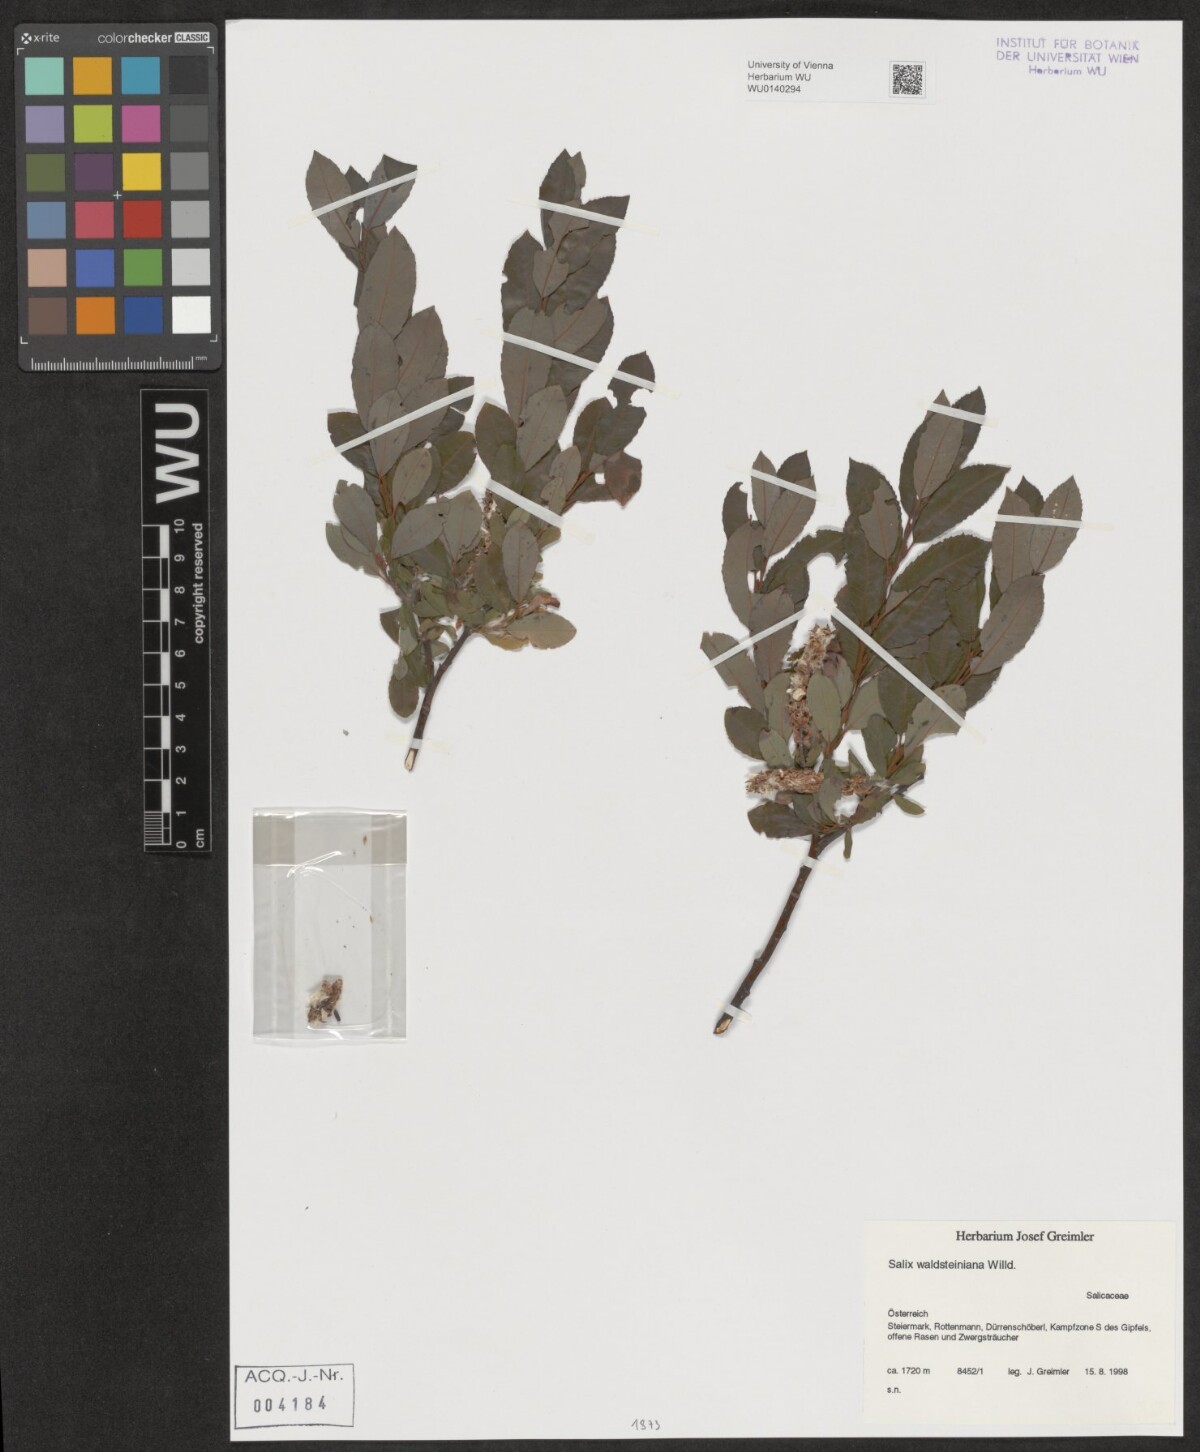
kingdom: Plantae
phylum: Tracheophyta
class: Magnoliopsida
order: Malpighiales
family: Salicaceae
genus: Salix
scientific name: Salix waldsteiniana
